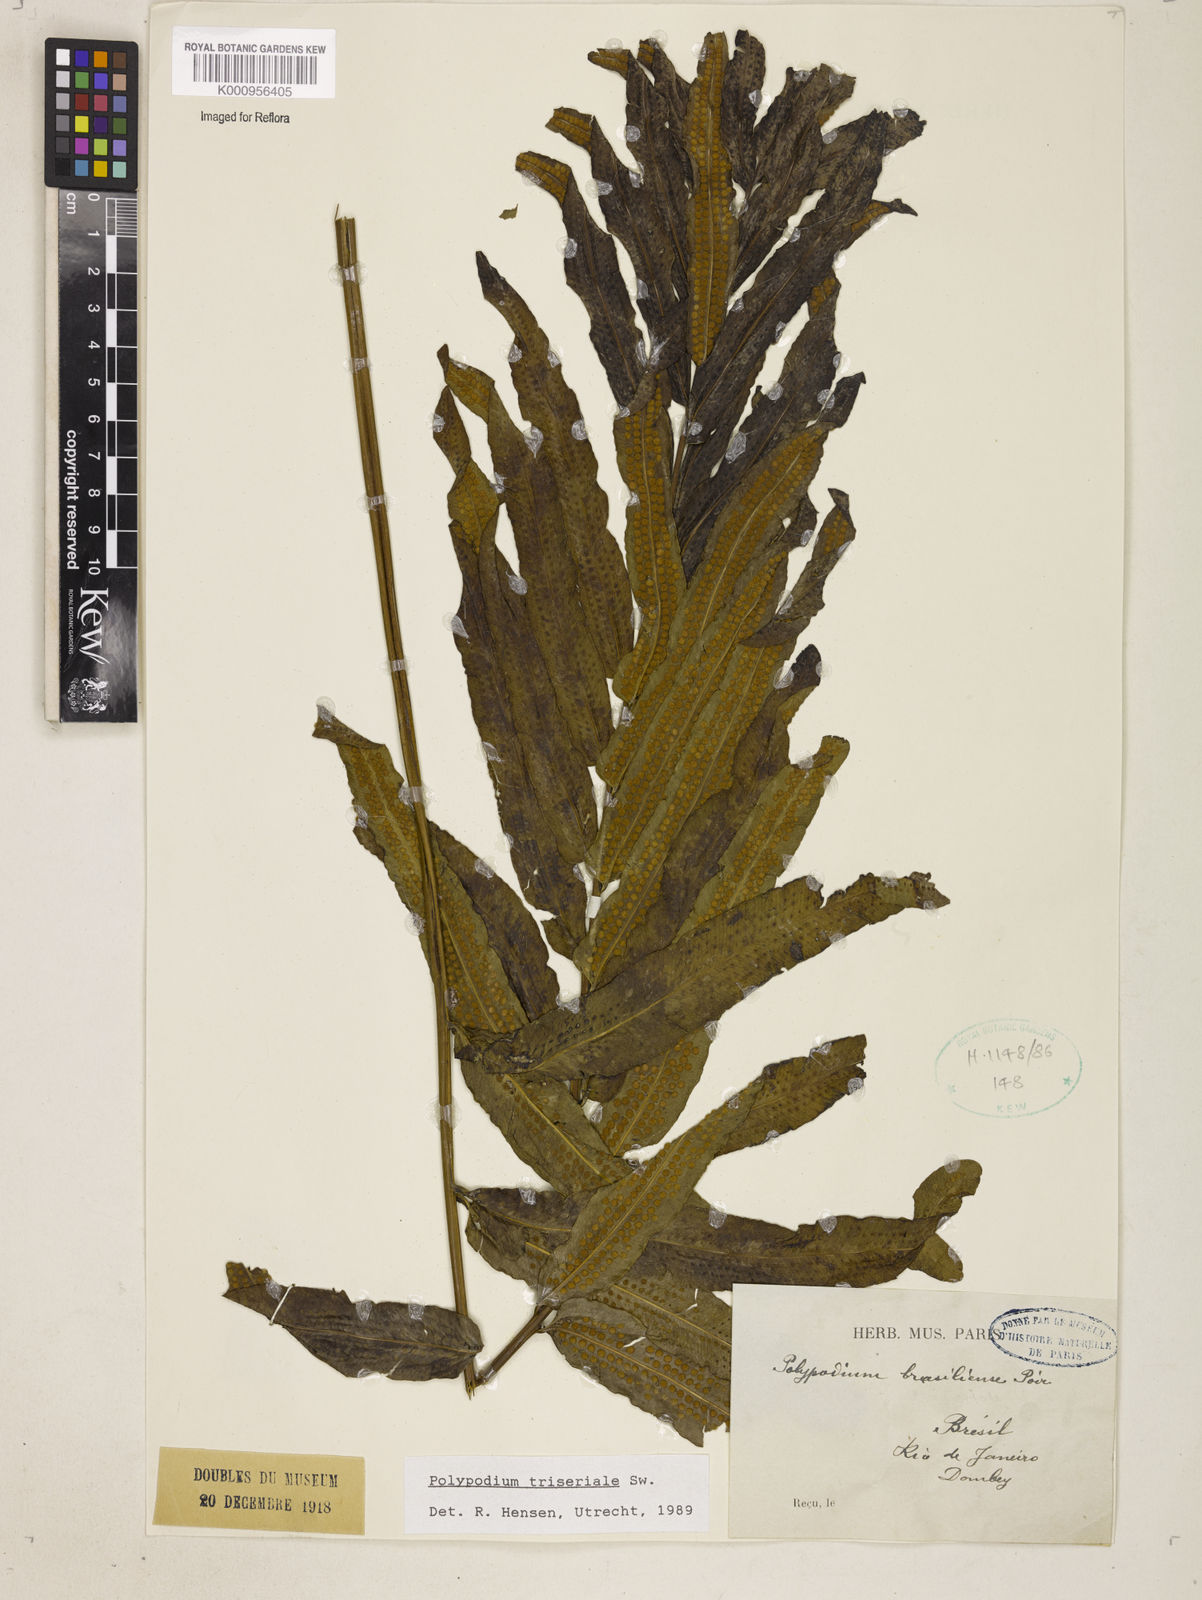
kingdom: Plantae
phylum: Tracheophyta
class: Polypodiopsida
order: Polypodiales
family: Polypodiaceae
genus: Serpocaulon
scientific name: Serpocaulon triseriale
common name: Angle-vein fern
